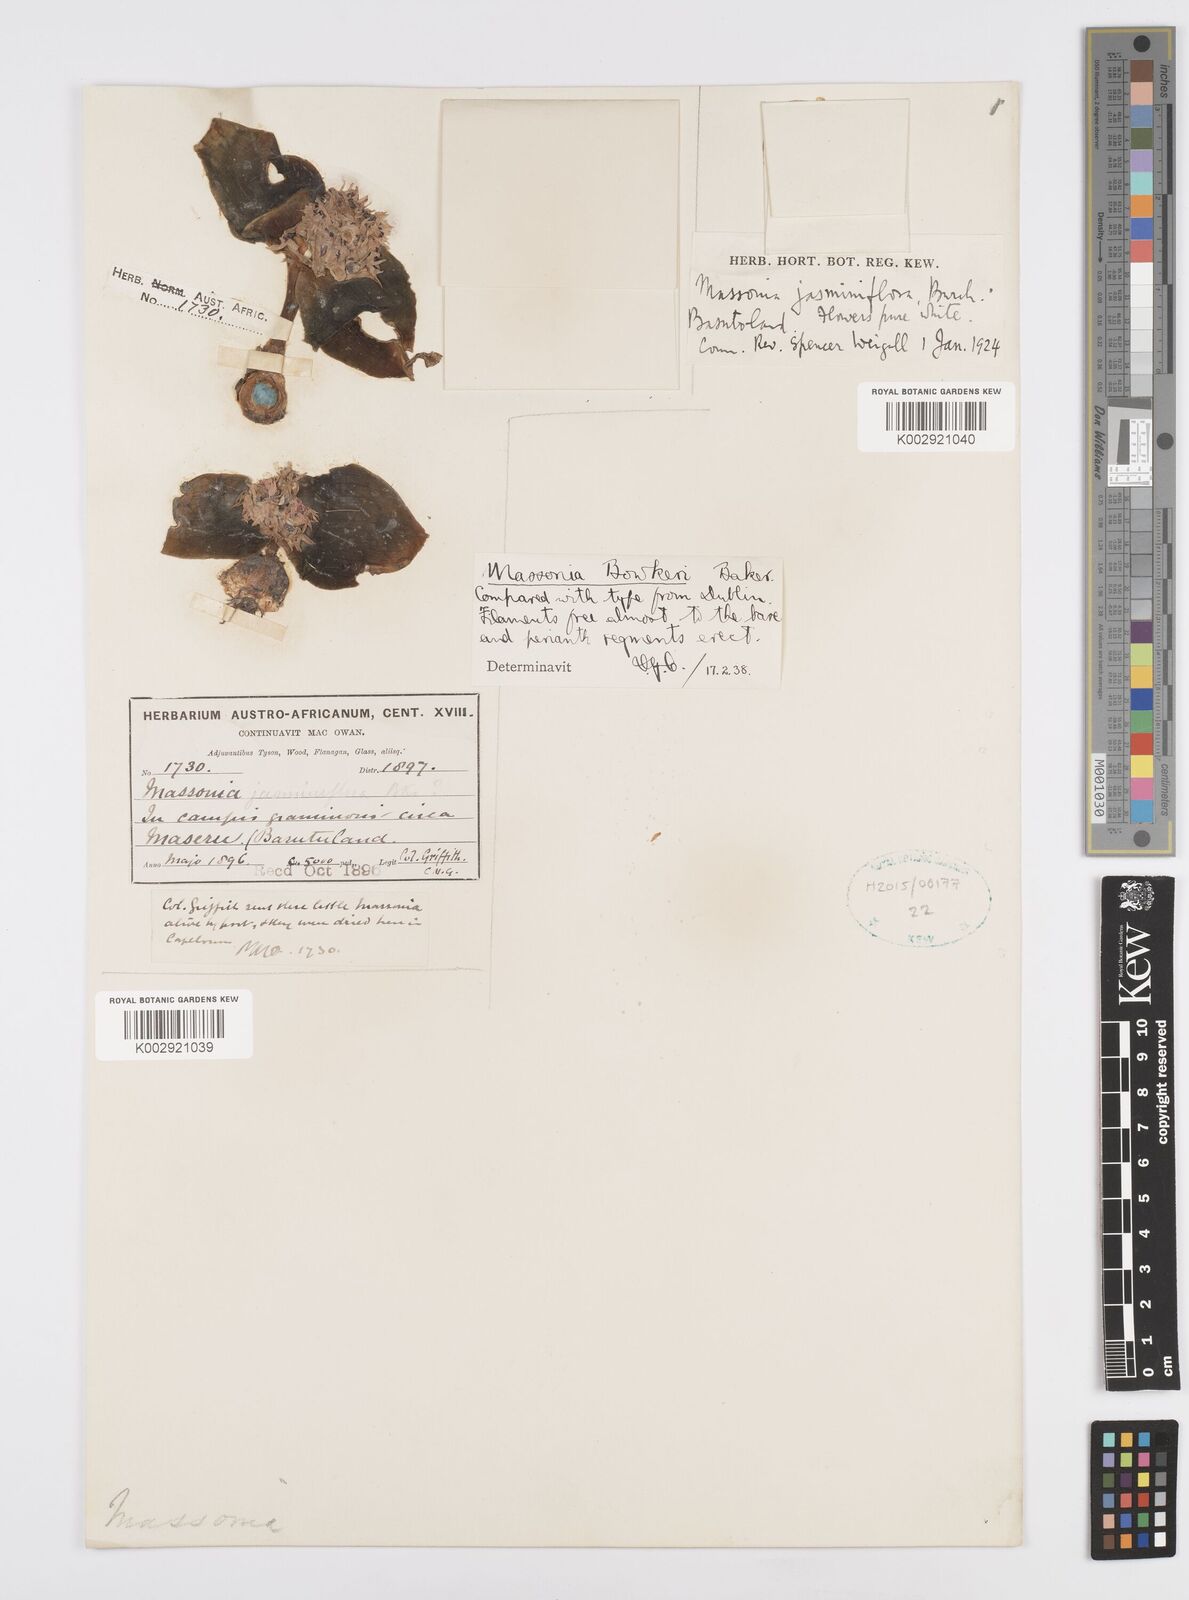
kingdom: Plantae
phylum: Tracheophyta
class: Liliopsida
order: Asparagales
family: Asparagaceae
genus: Massonia
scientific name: Massonia jasminiflora
